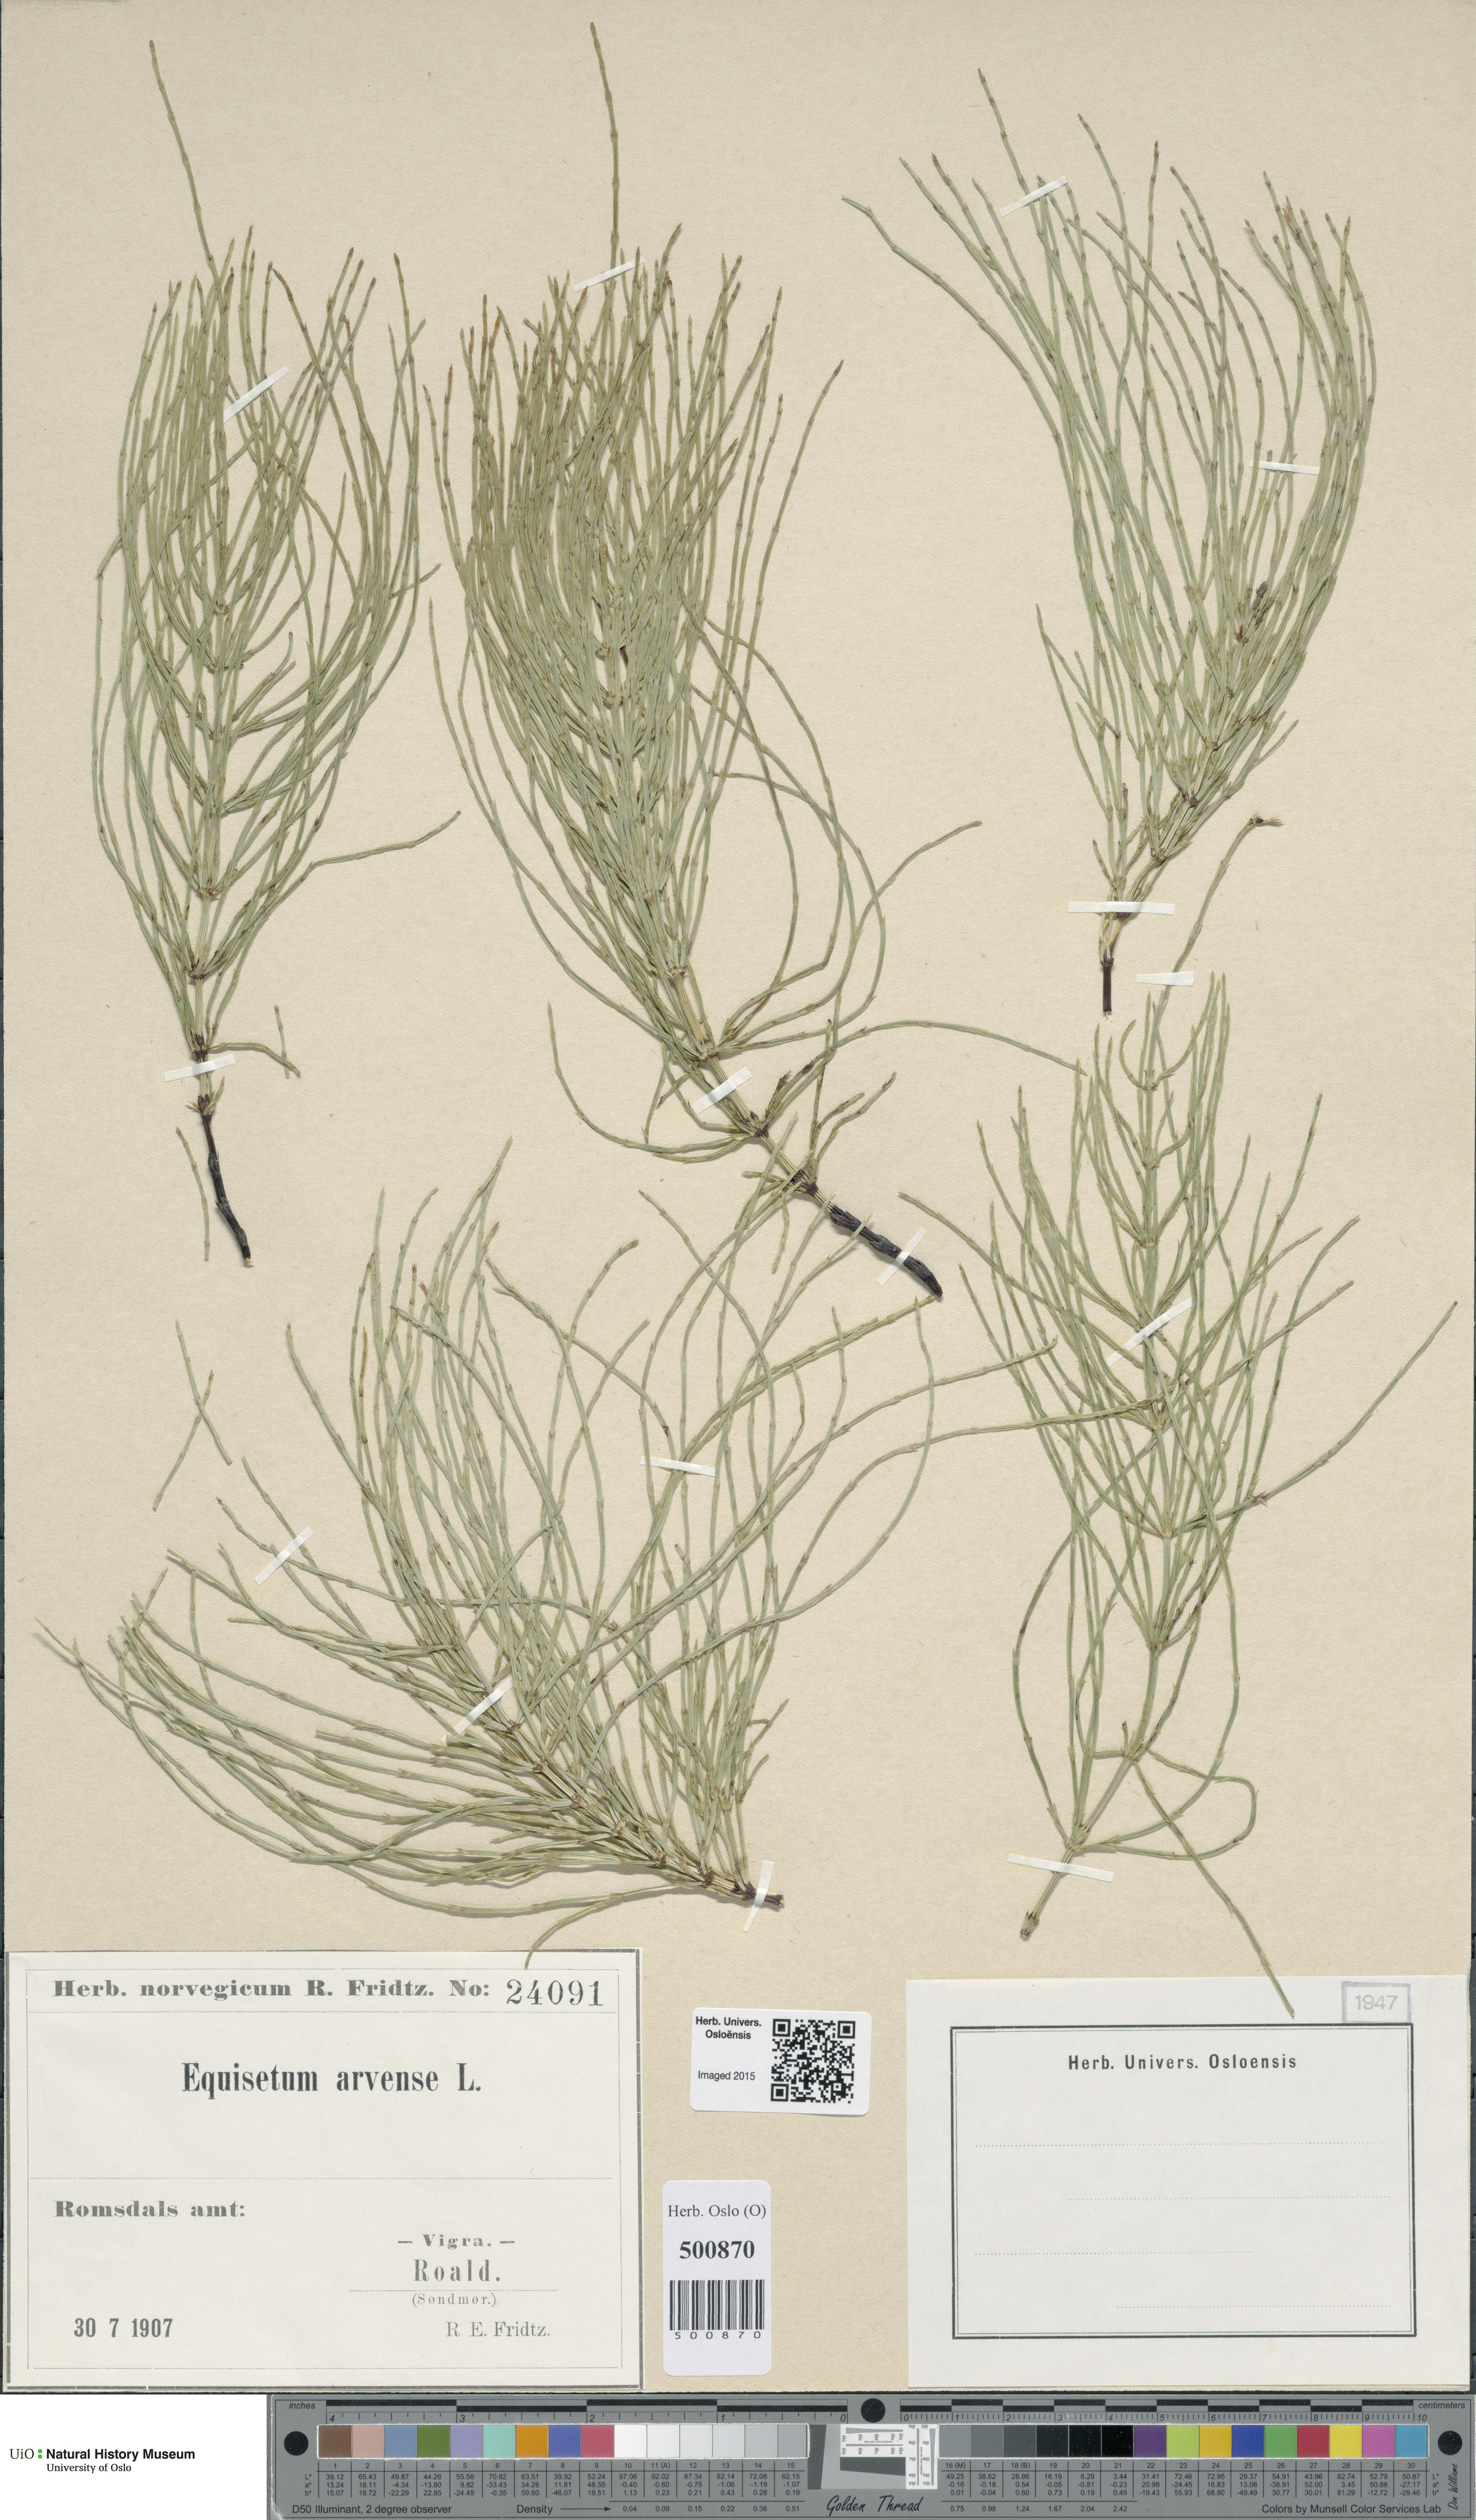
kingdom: Plantae
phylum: Tracheophyta
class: Polypodiopsida
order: Equisetales
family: Equisetaceae
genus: Equisetum
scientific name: Equisetum arvense
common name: Field horsetail
